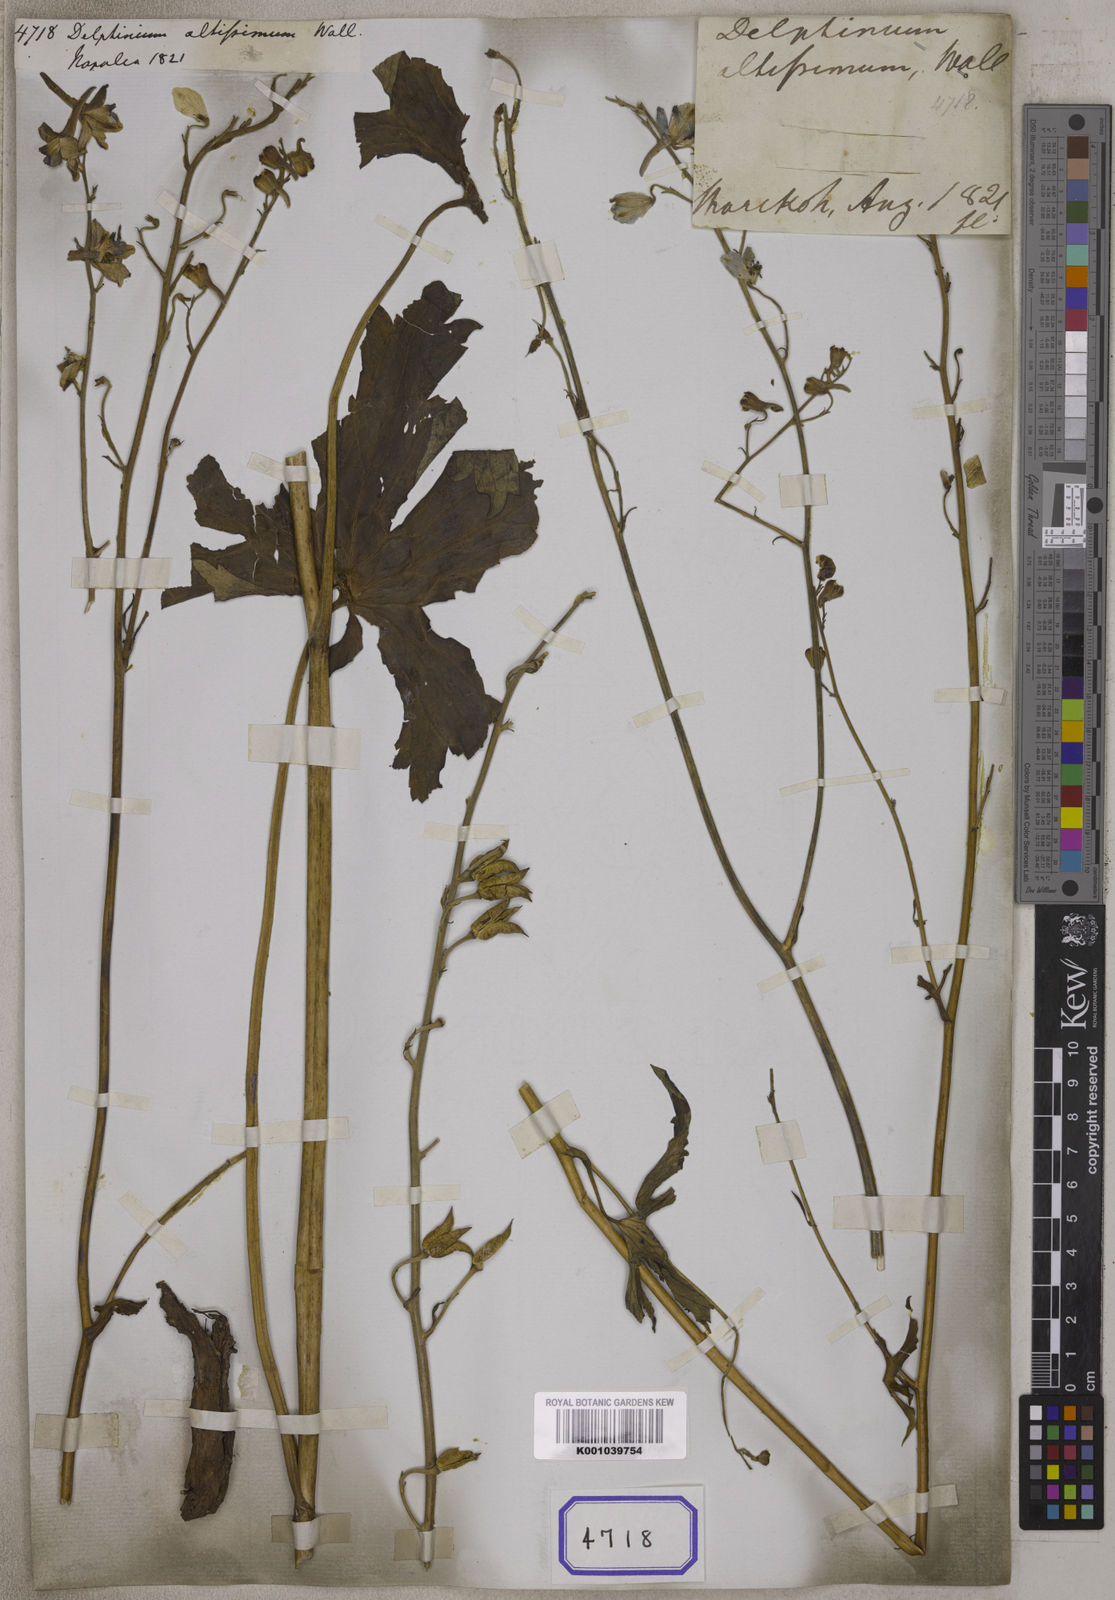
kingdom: Plantae
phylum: Tracheophyta
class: Magnoliopsida
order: Ranunculales
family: Ranunculaceae
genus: Delphinium
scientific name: Delphinium altissimum
